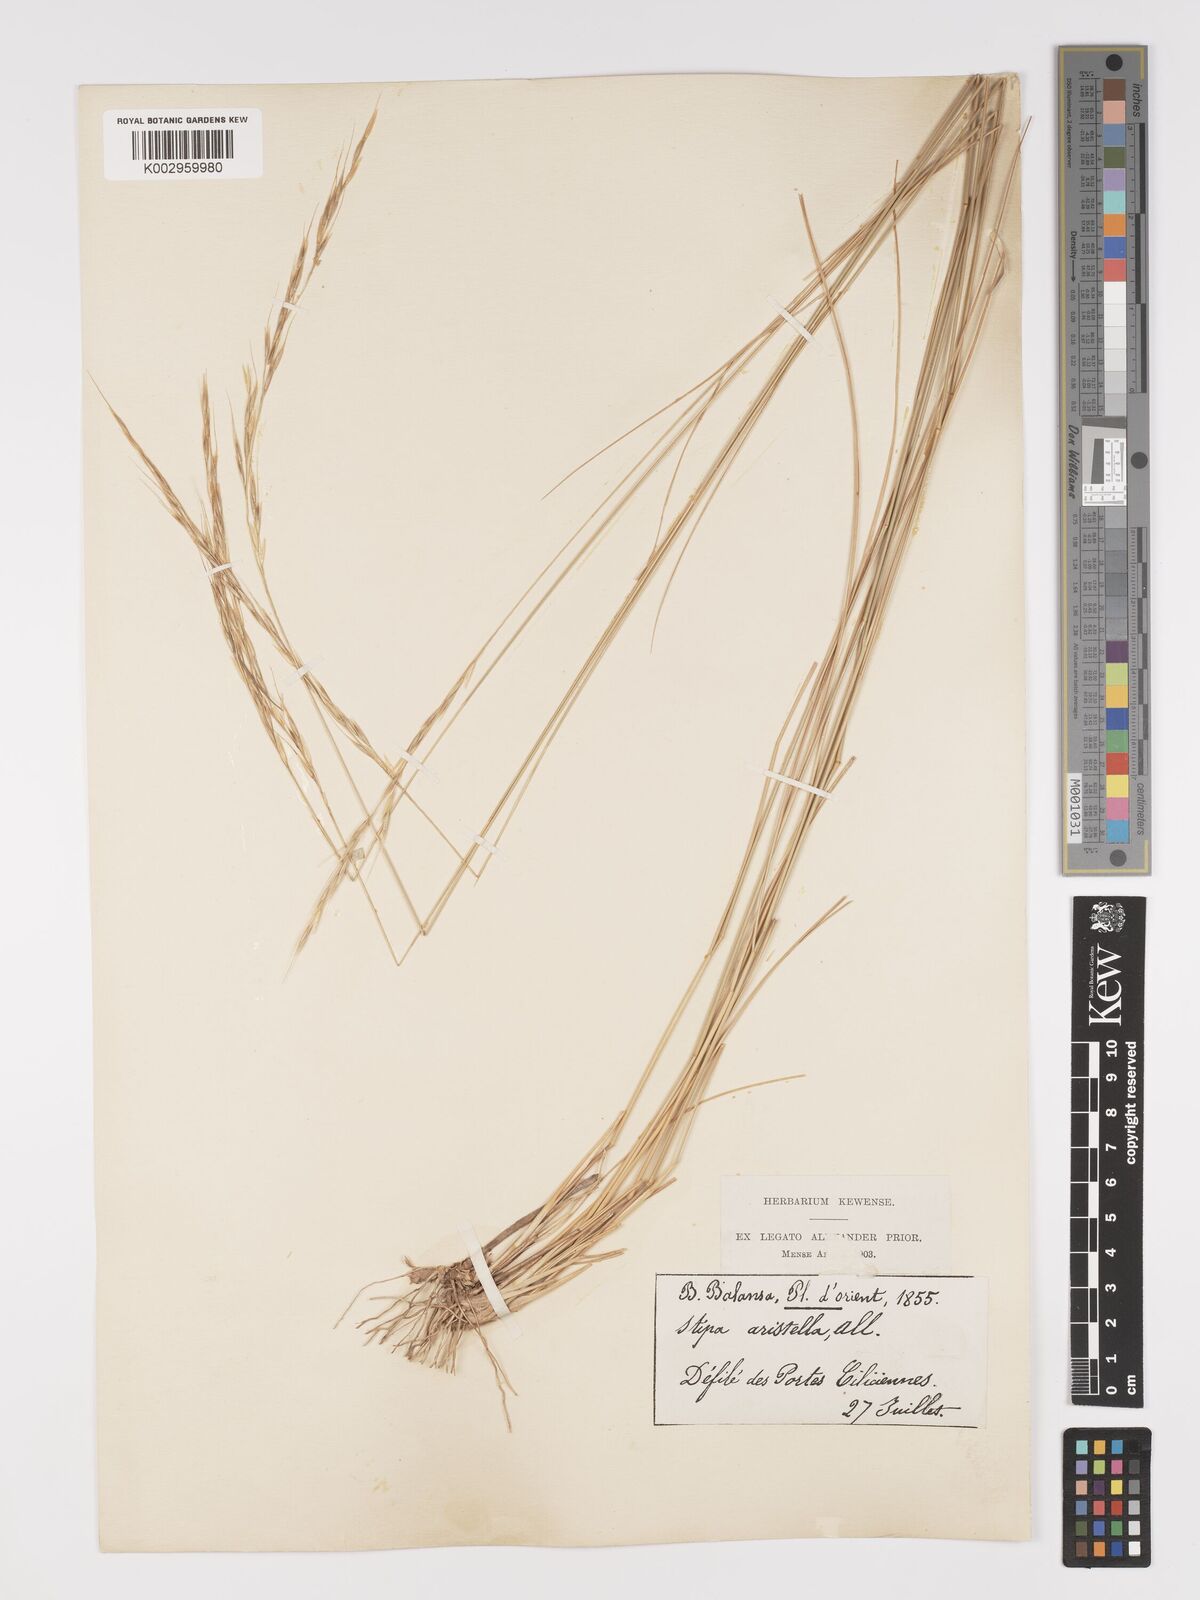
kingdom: Plantae
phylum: Tracheophyta
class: Liliopsida
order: Poales
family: Poaceae
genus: Achnatherum
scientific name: Achnatherum bromoides
